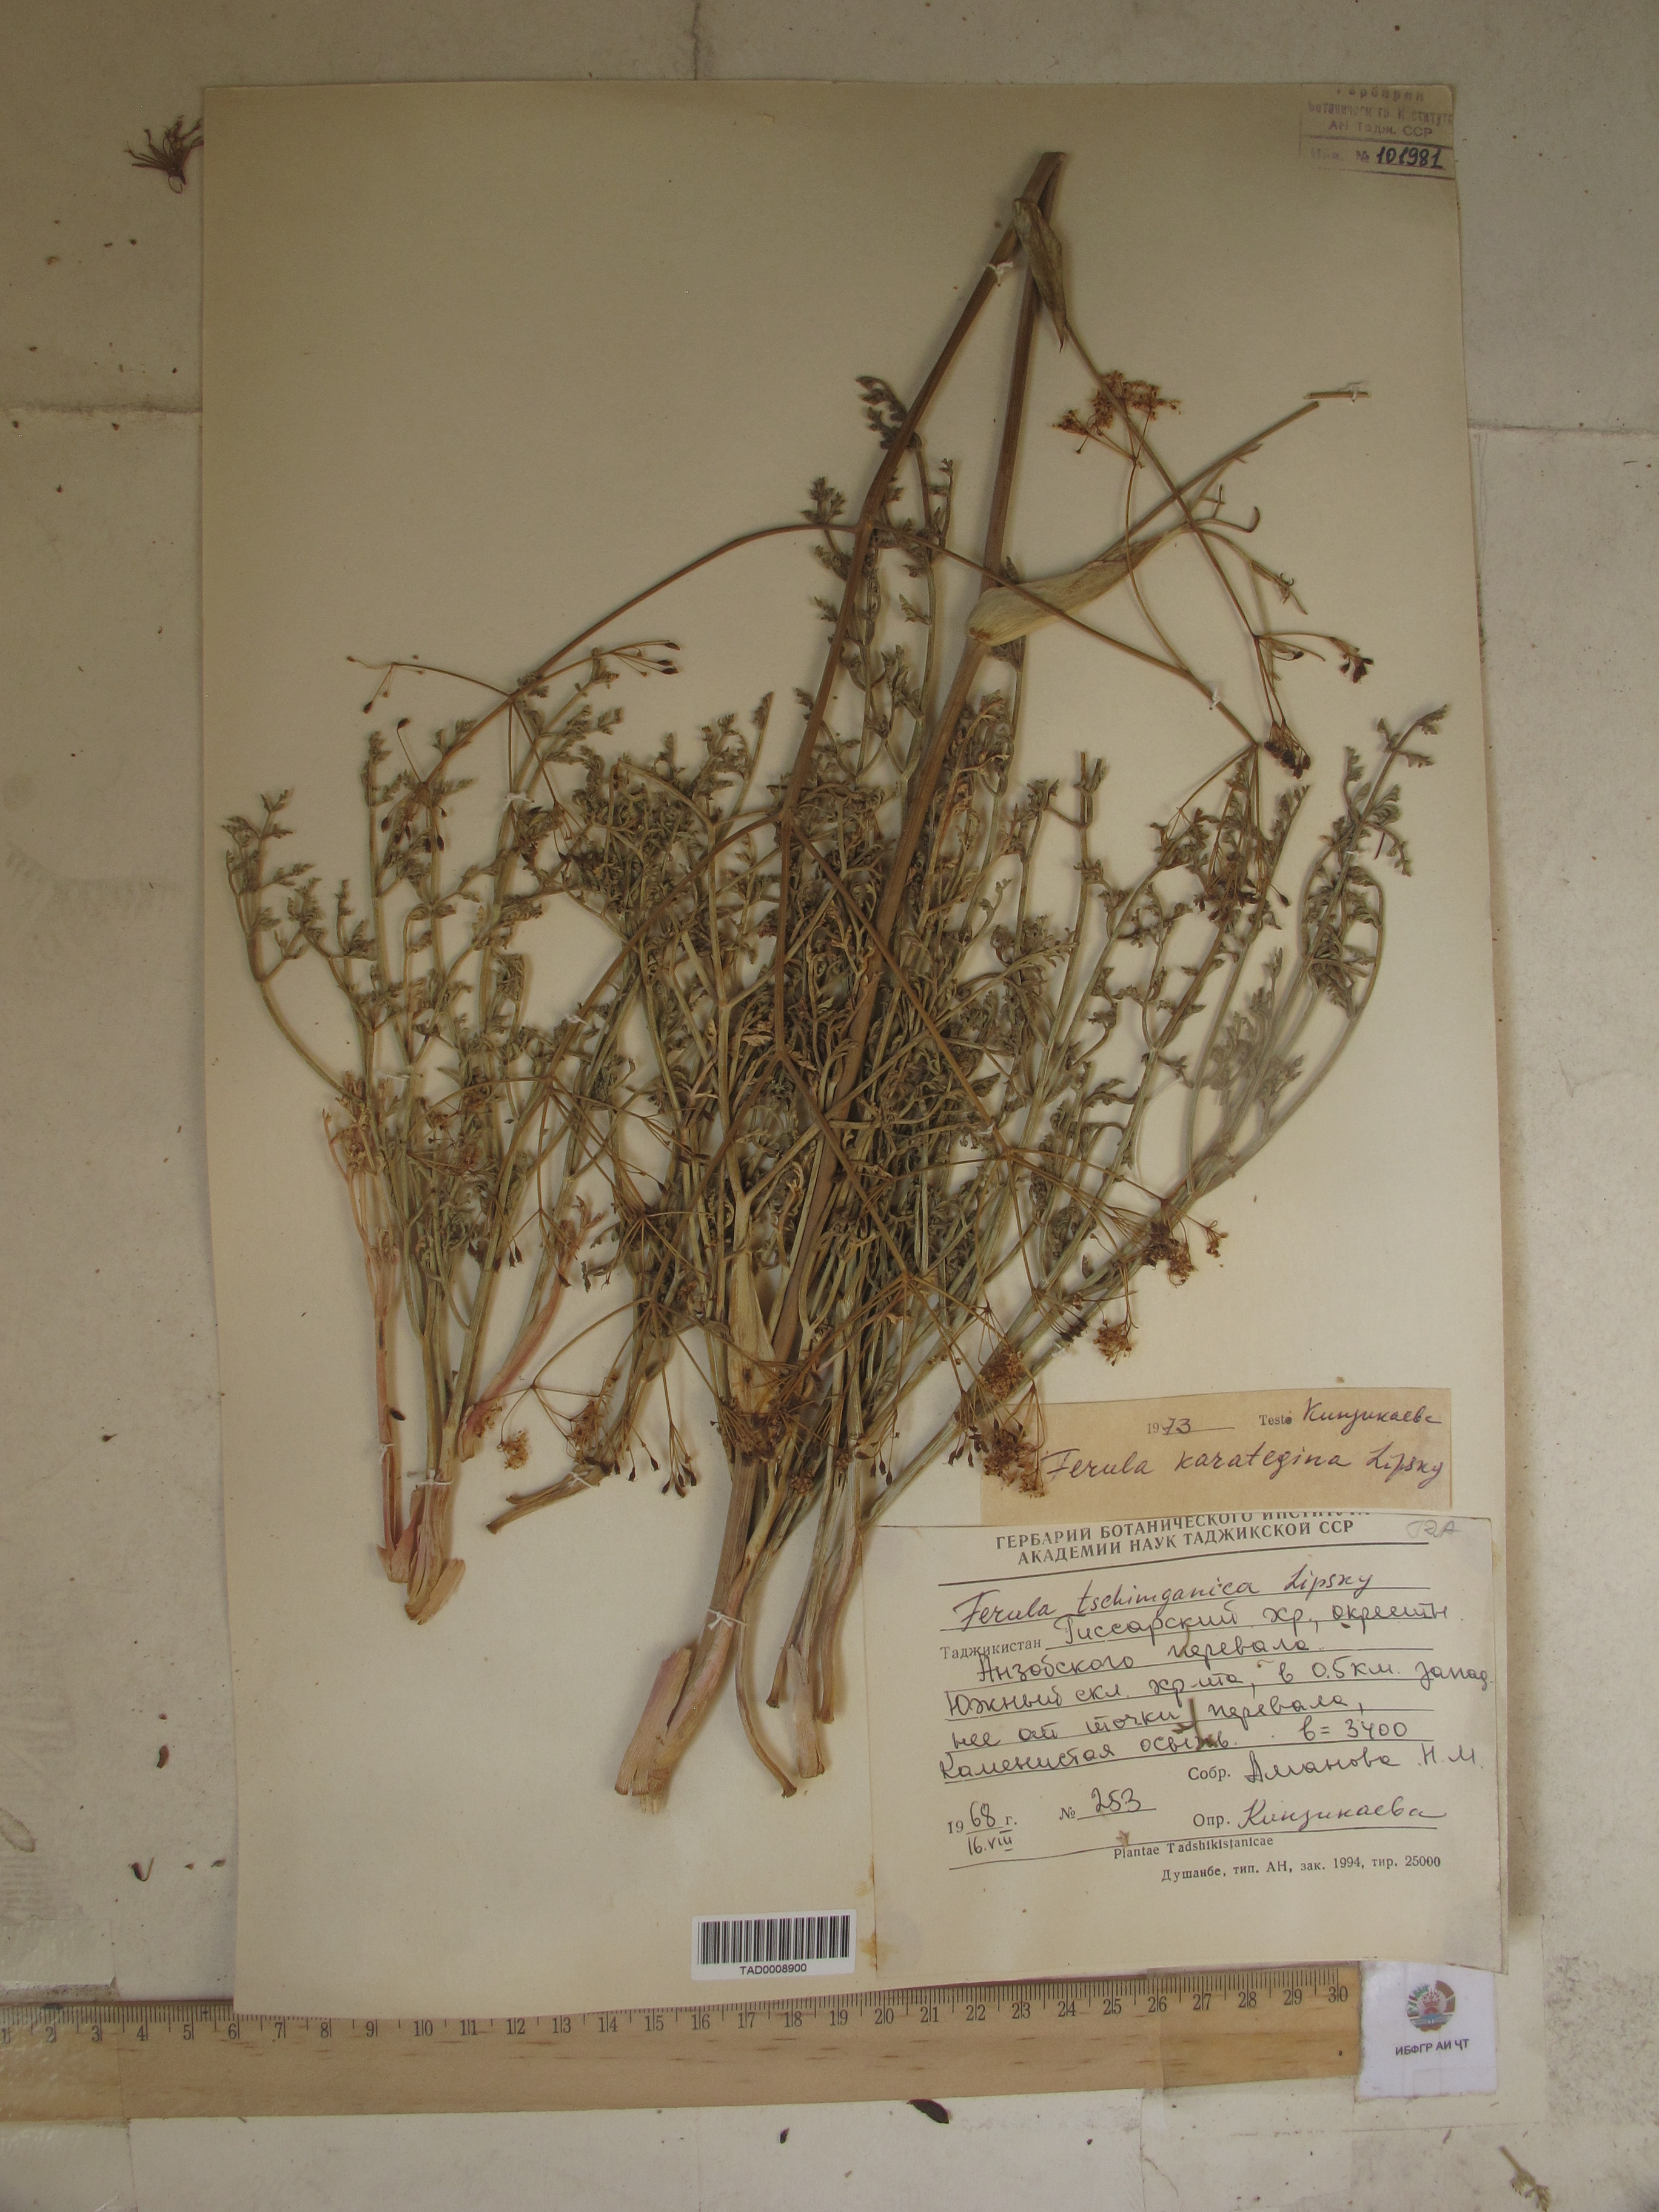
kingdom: Plantae
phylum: Tracheophyta
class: Magnoliopsida
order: Apiales
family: Apiaceae
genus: Ferula
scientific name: Ferula karategina
